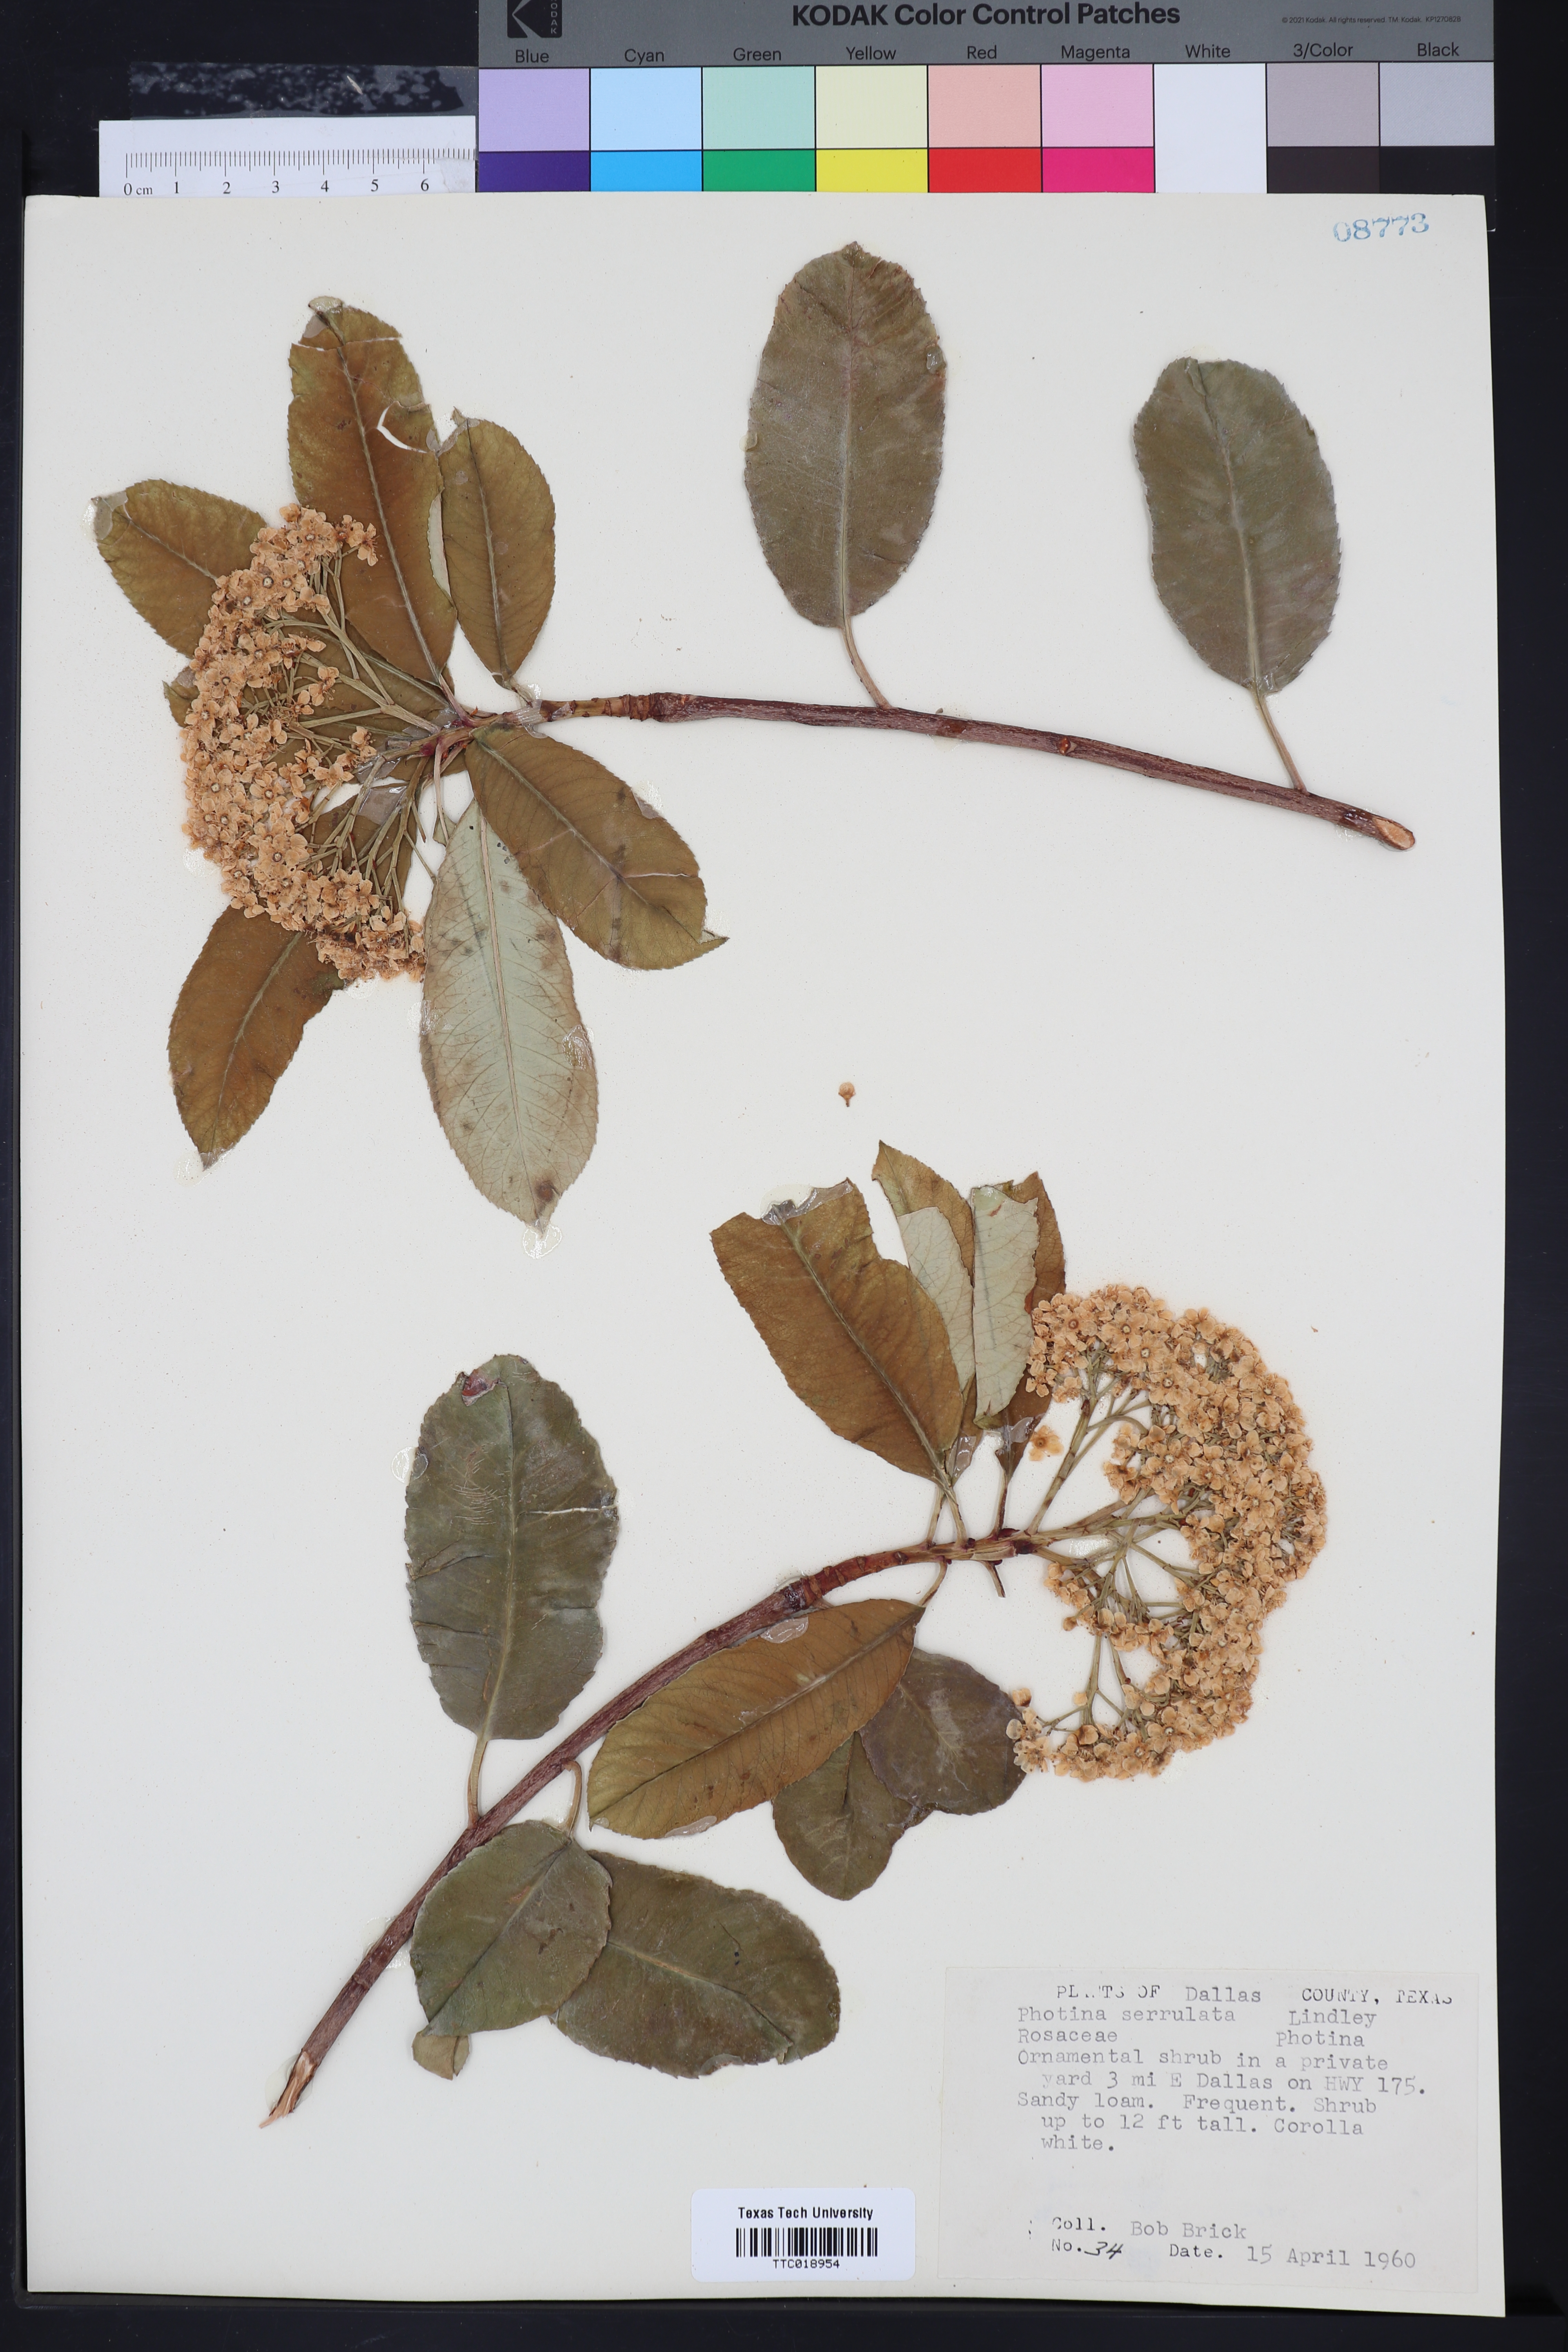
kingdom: Plantae
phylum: Tracheophyta
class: Magnoliopsida
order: Rosales
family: Rosaceae
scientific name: Rosaceae
